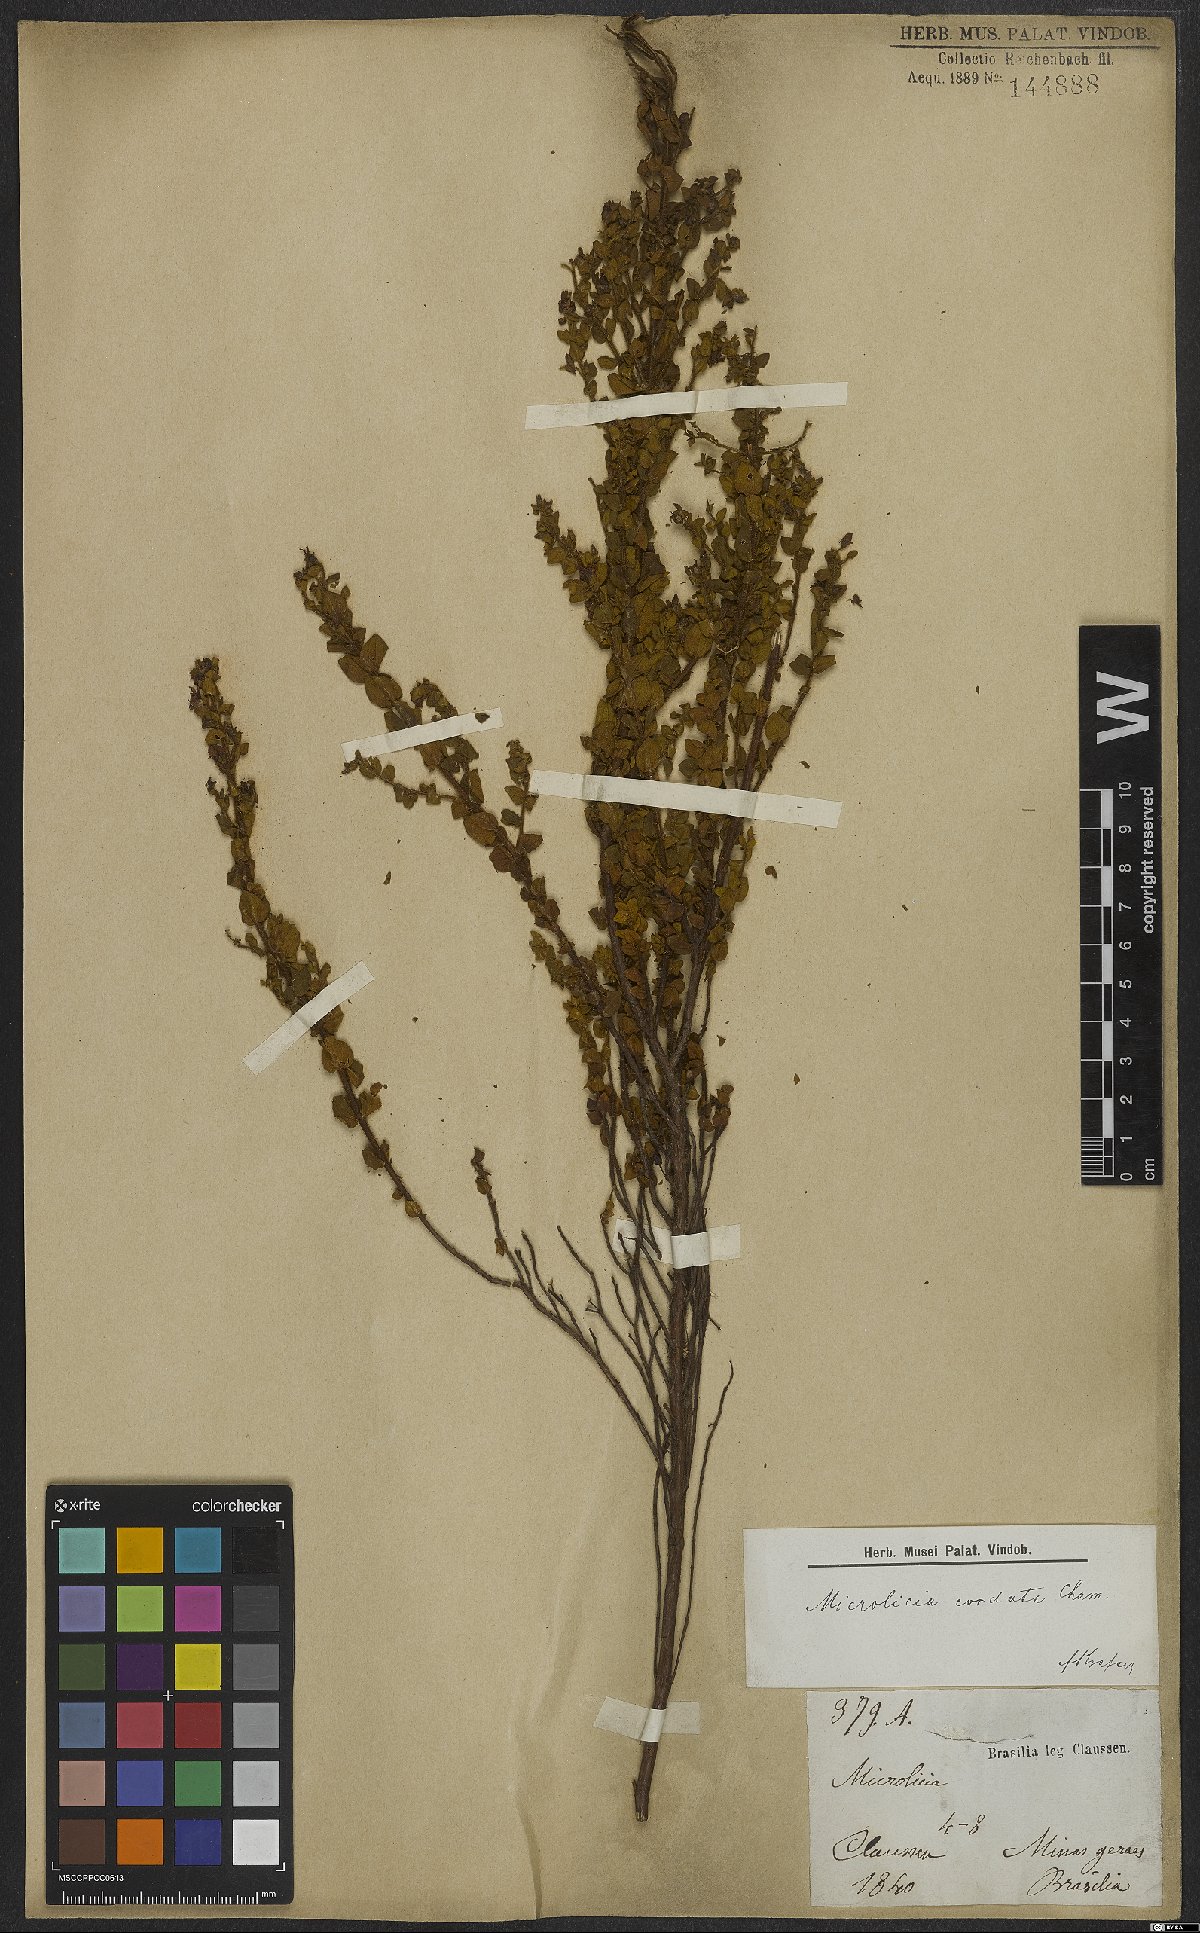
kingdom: Plantae
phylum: Tracheophyta
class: Magnoliopsida
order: Myrtales
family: Melastomataceae
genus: Microlicia
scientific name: Microlicia cordata
